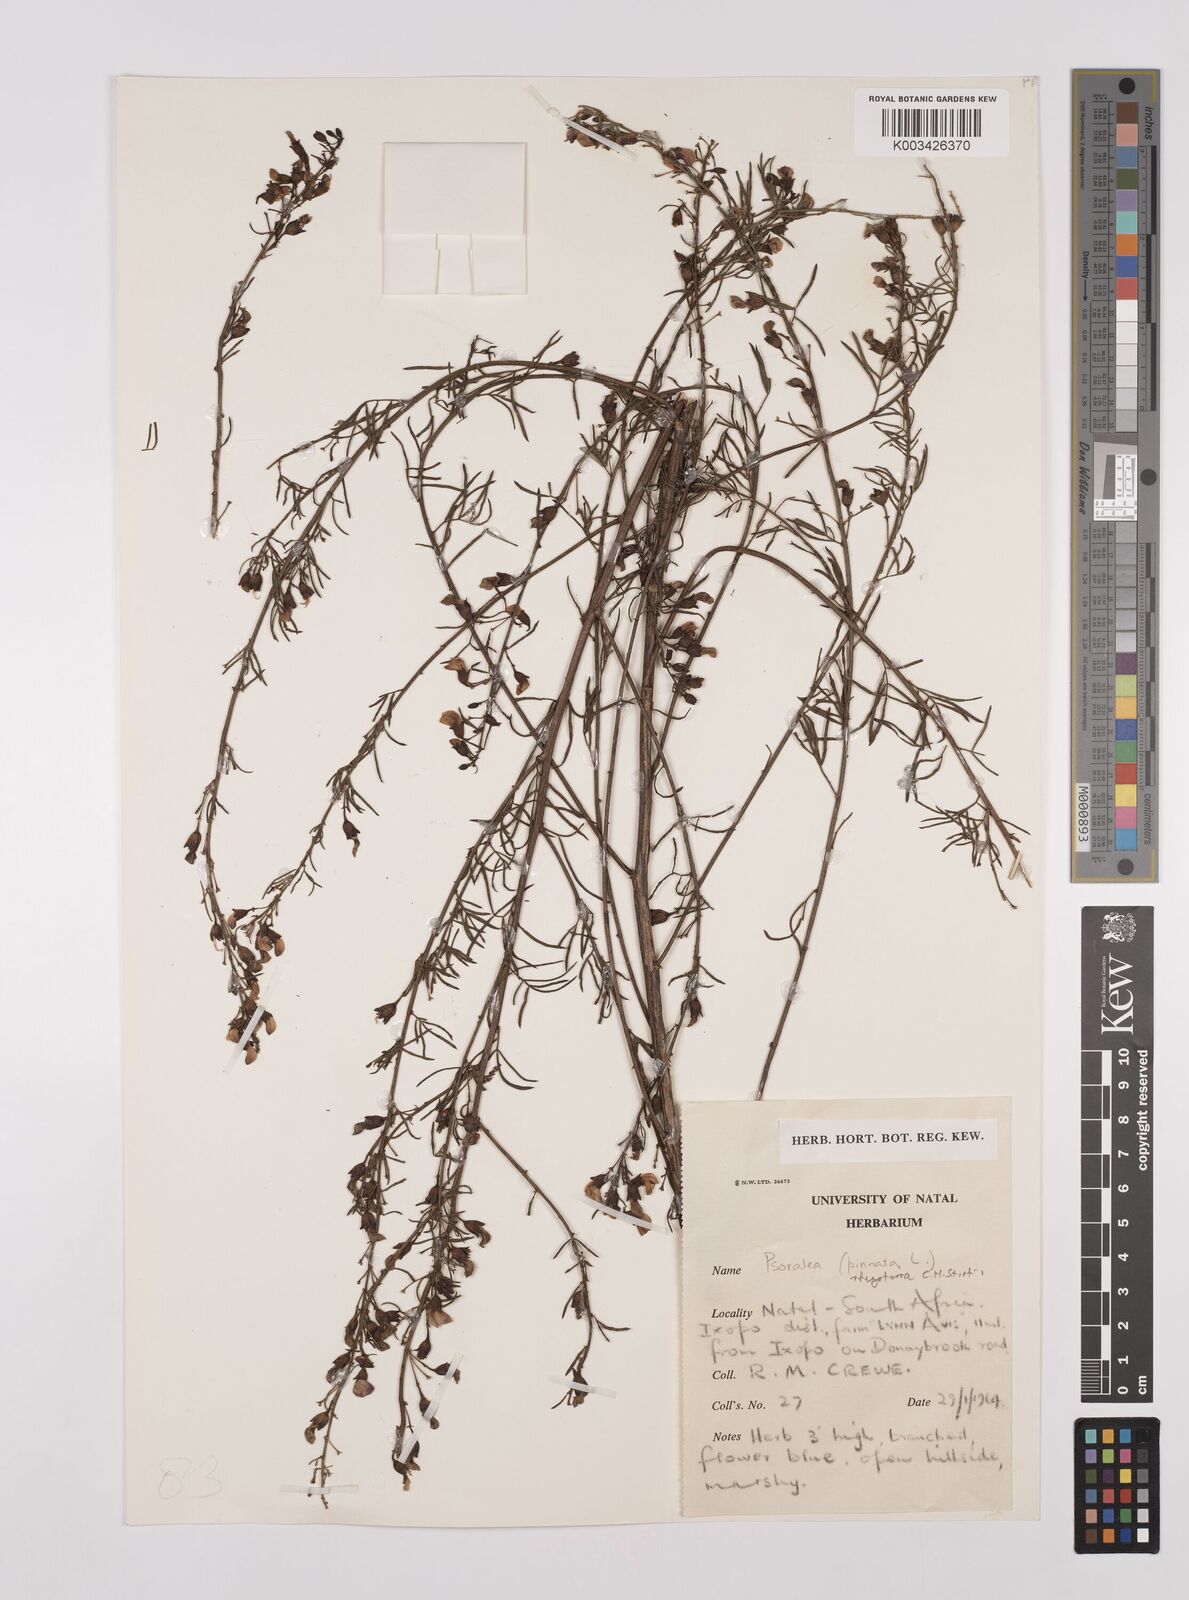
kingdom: Plantae
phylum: Tracheophyta
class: Magnoliopsida
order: Fabales
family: Fabaceae
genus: Psoralea
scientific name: Psoralea rhizotoma
